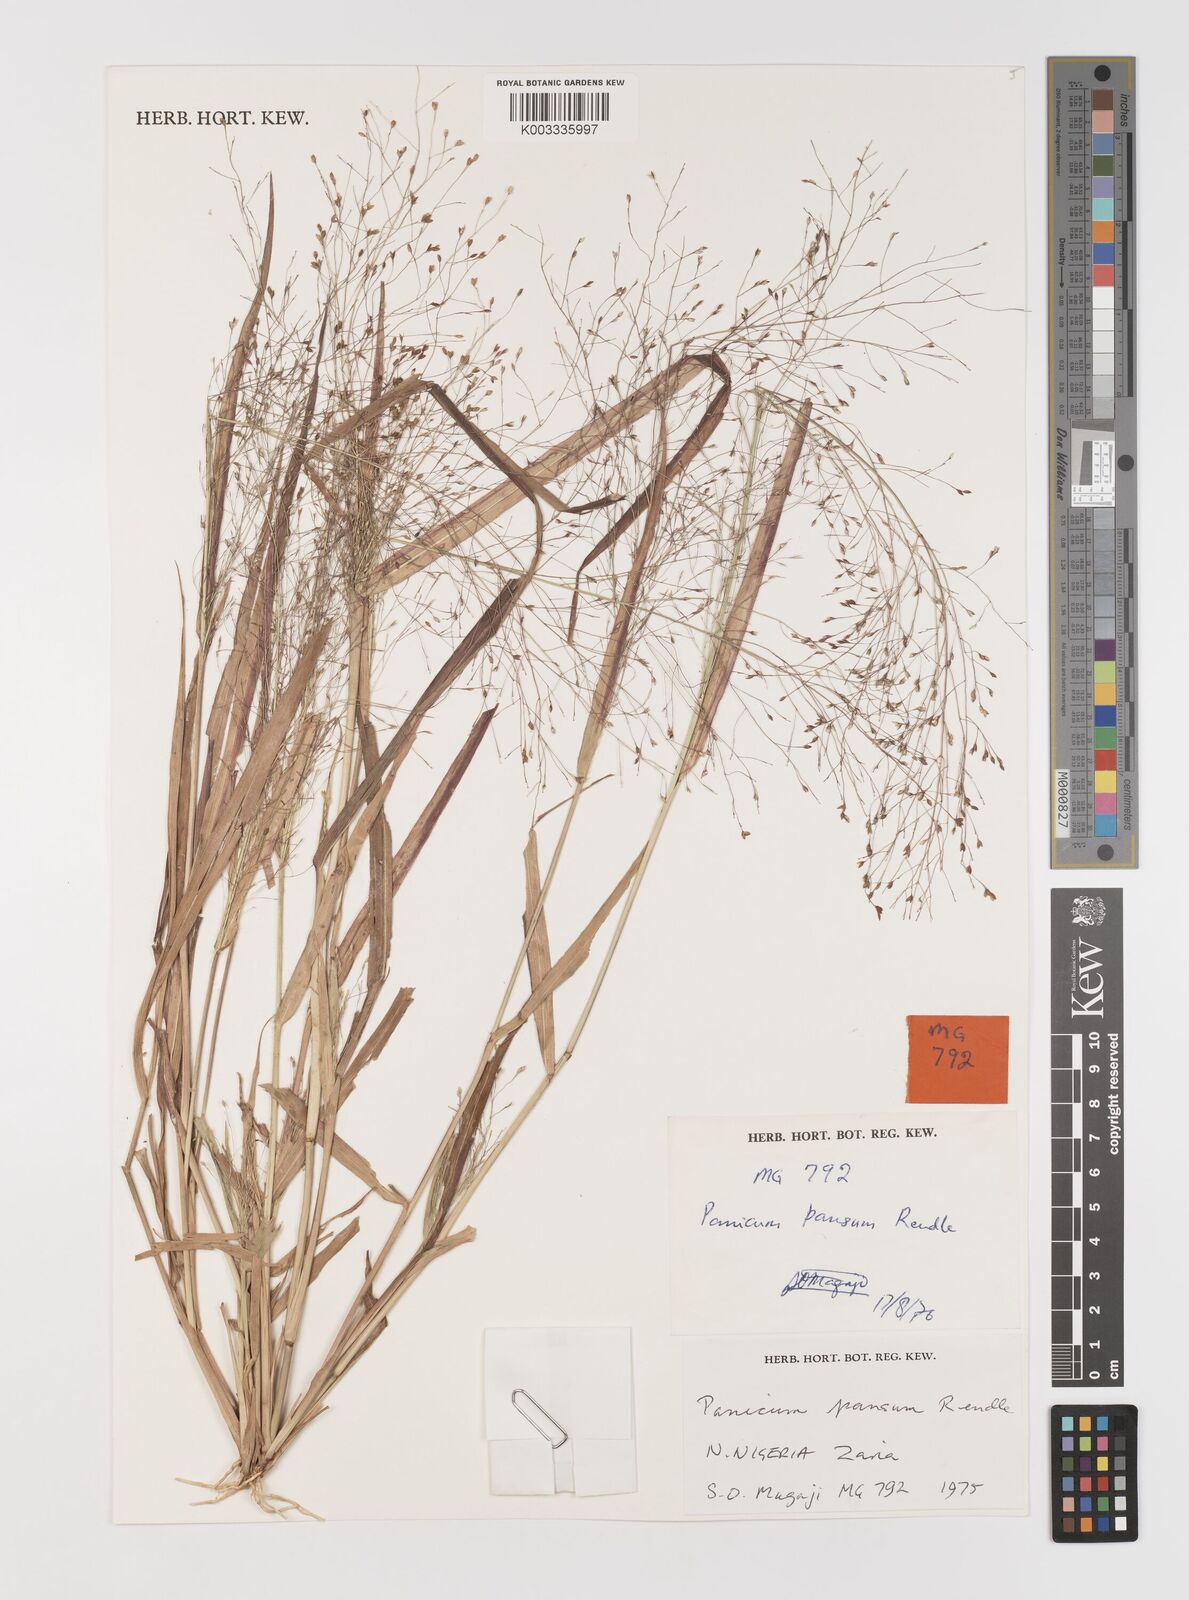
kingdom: Plantae
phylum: Tracheophyta
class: Liliopsida
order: Poales
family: Poaceae
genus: Panicum
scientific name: Panicum pansum
